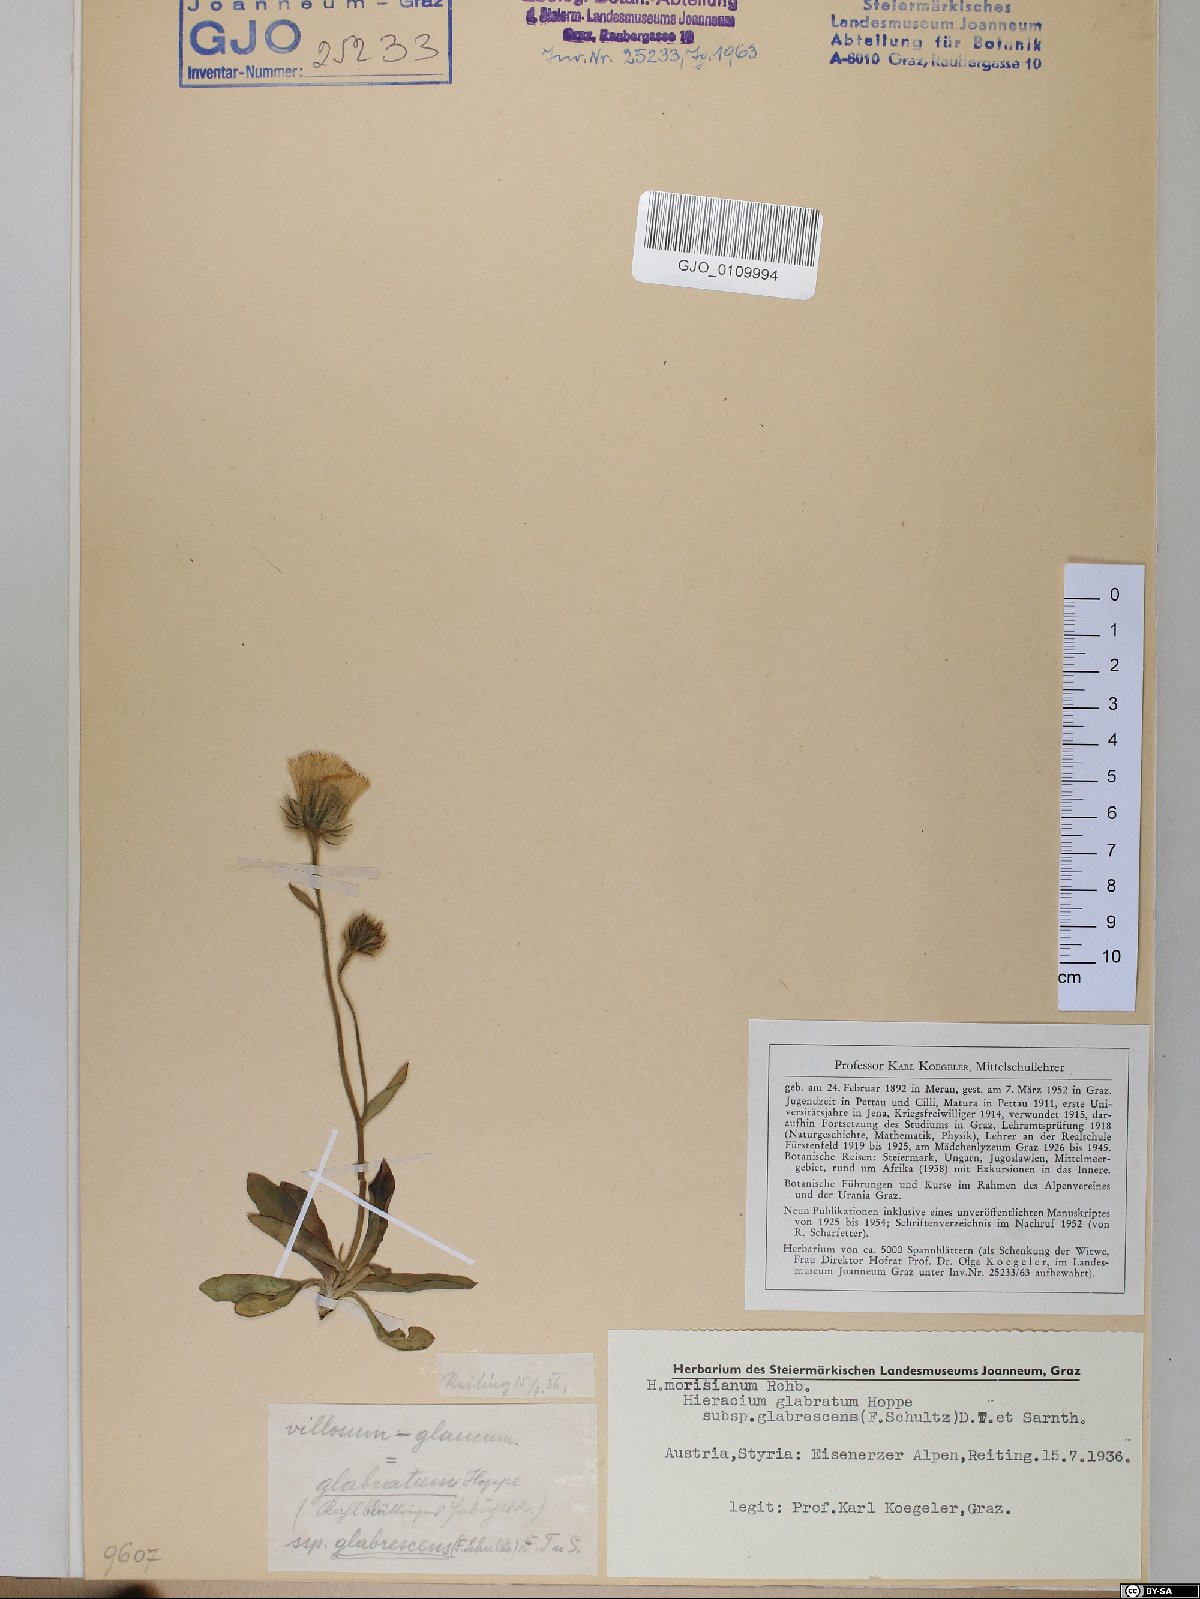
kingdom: Plantae
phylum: Tracheophyta
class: Magnoliopsida
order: Asterales
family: Asteraceae
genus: Hieracium
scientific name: Hieracium glabratum
